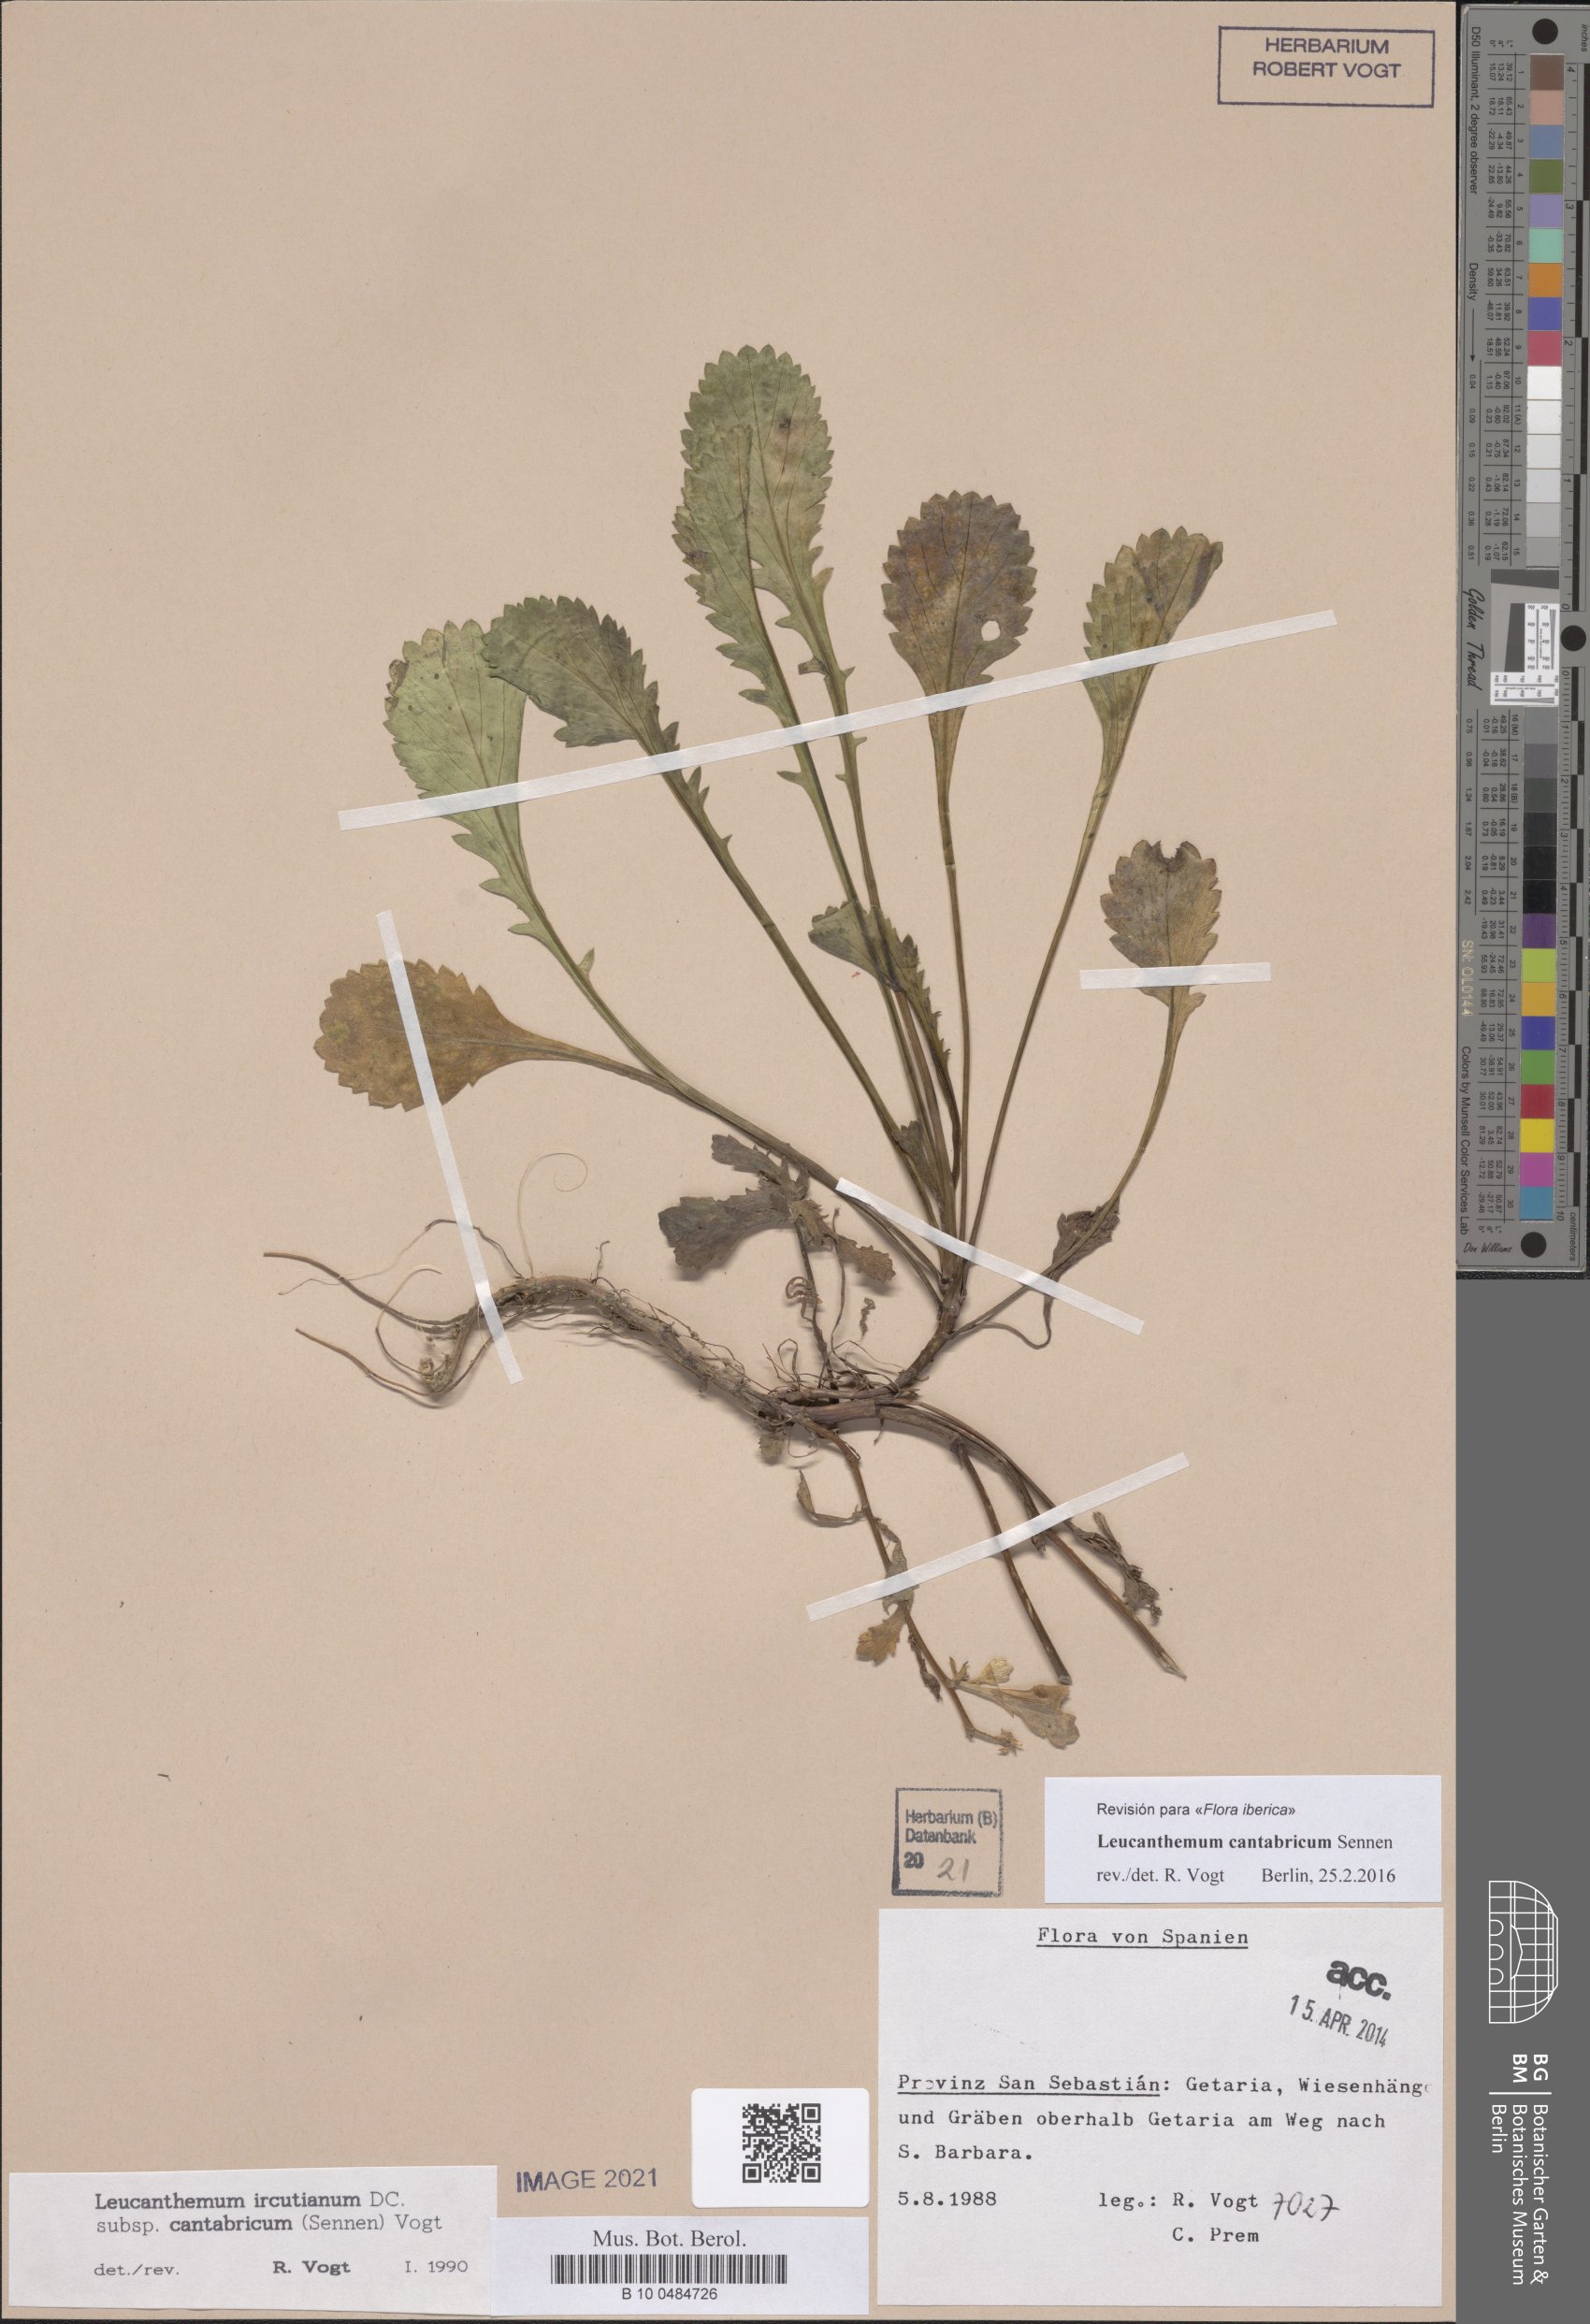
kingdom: Plantae
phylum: Tracheophyta
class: Magnoliopsida
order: Asterales
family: Asteraceae
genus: Leucanthemum
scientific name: Leucanthemum cantabricum
